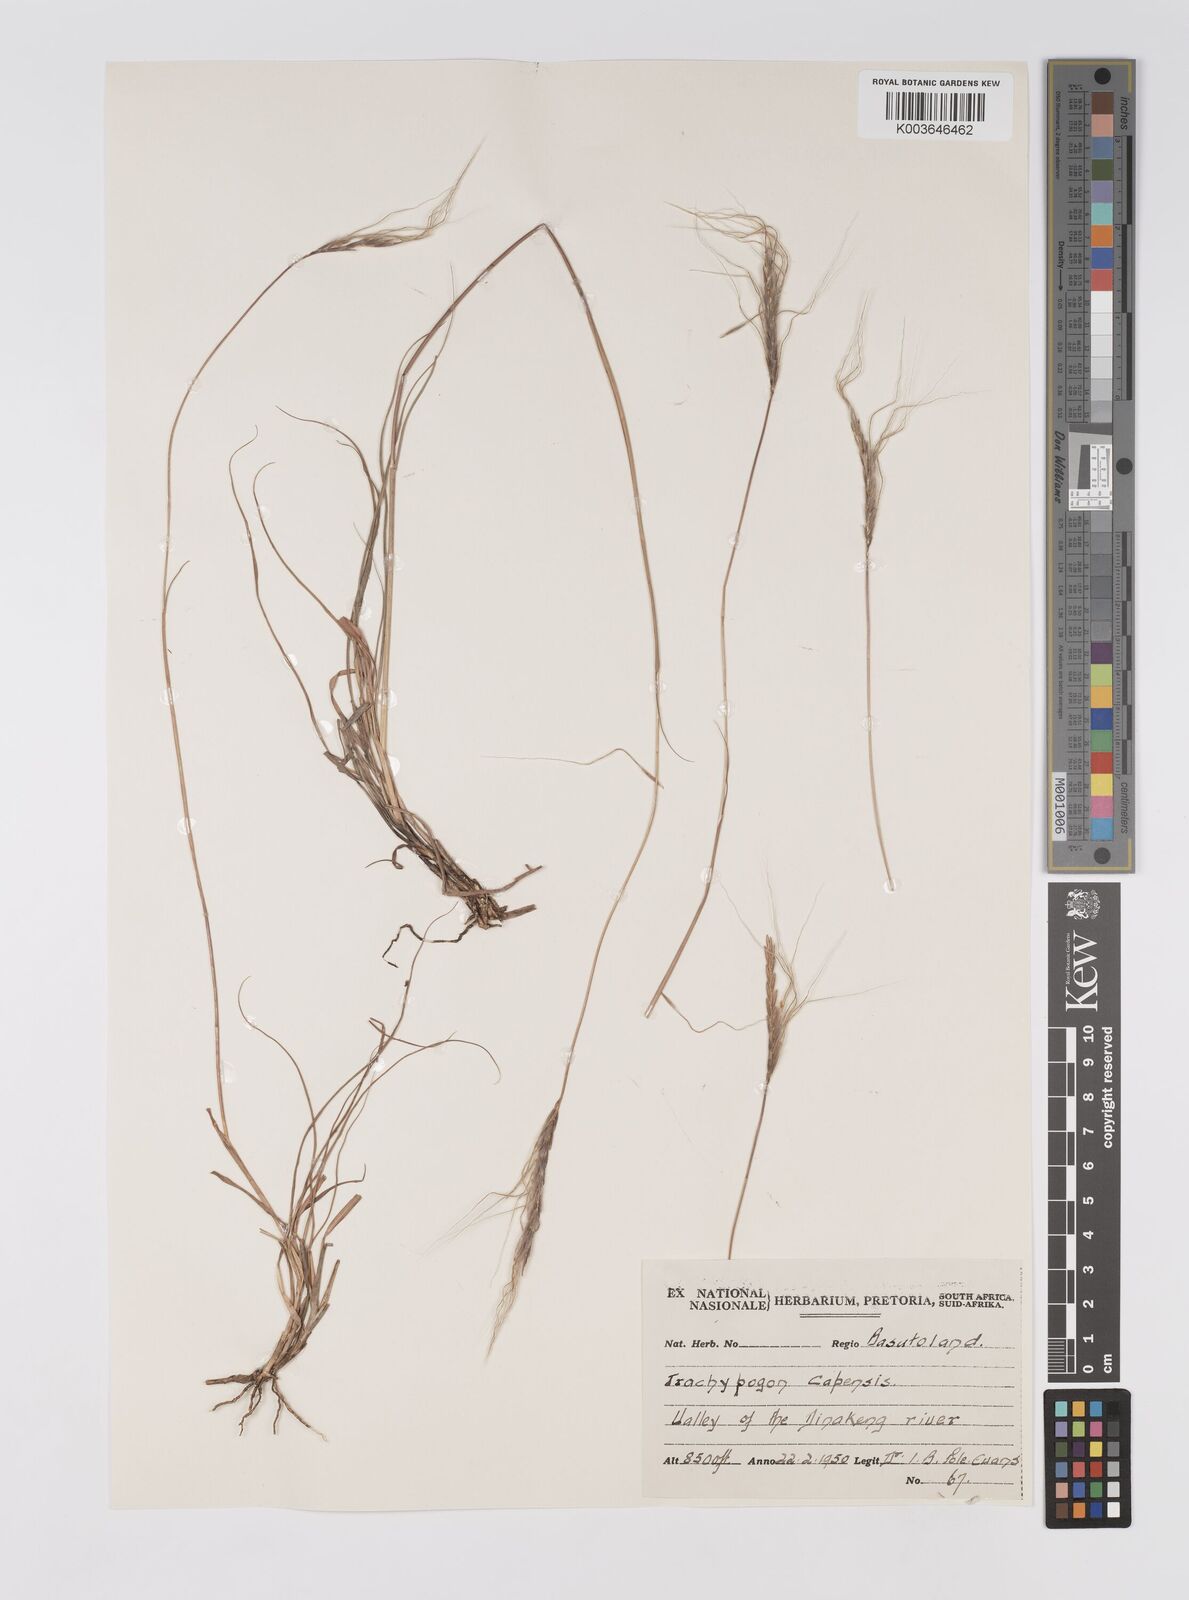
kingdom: Plantae
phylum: Tracheophyta
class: Liliopsida
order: Poales
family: Poaceae
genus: Trachypogon
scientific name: Trachypogon spicatus
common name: Crinkle-awn
